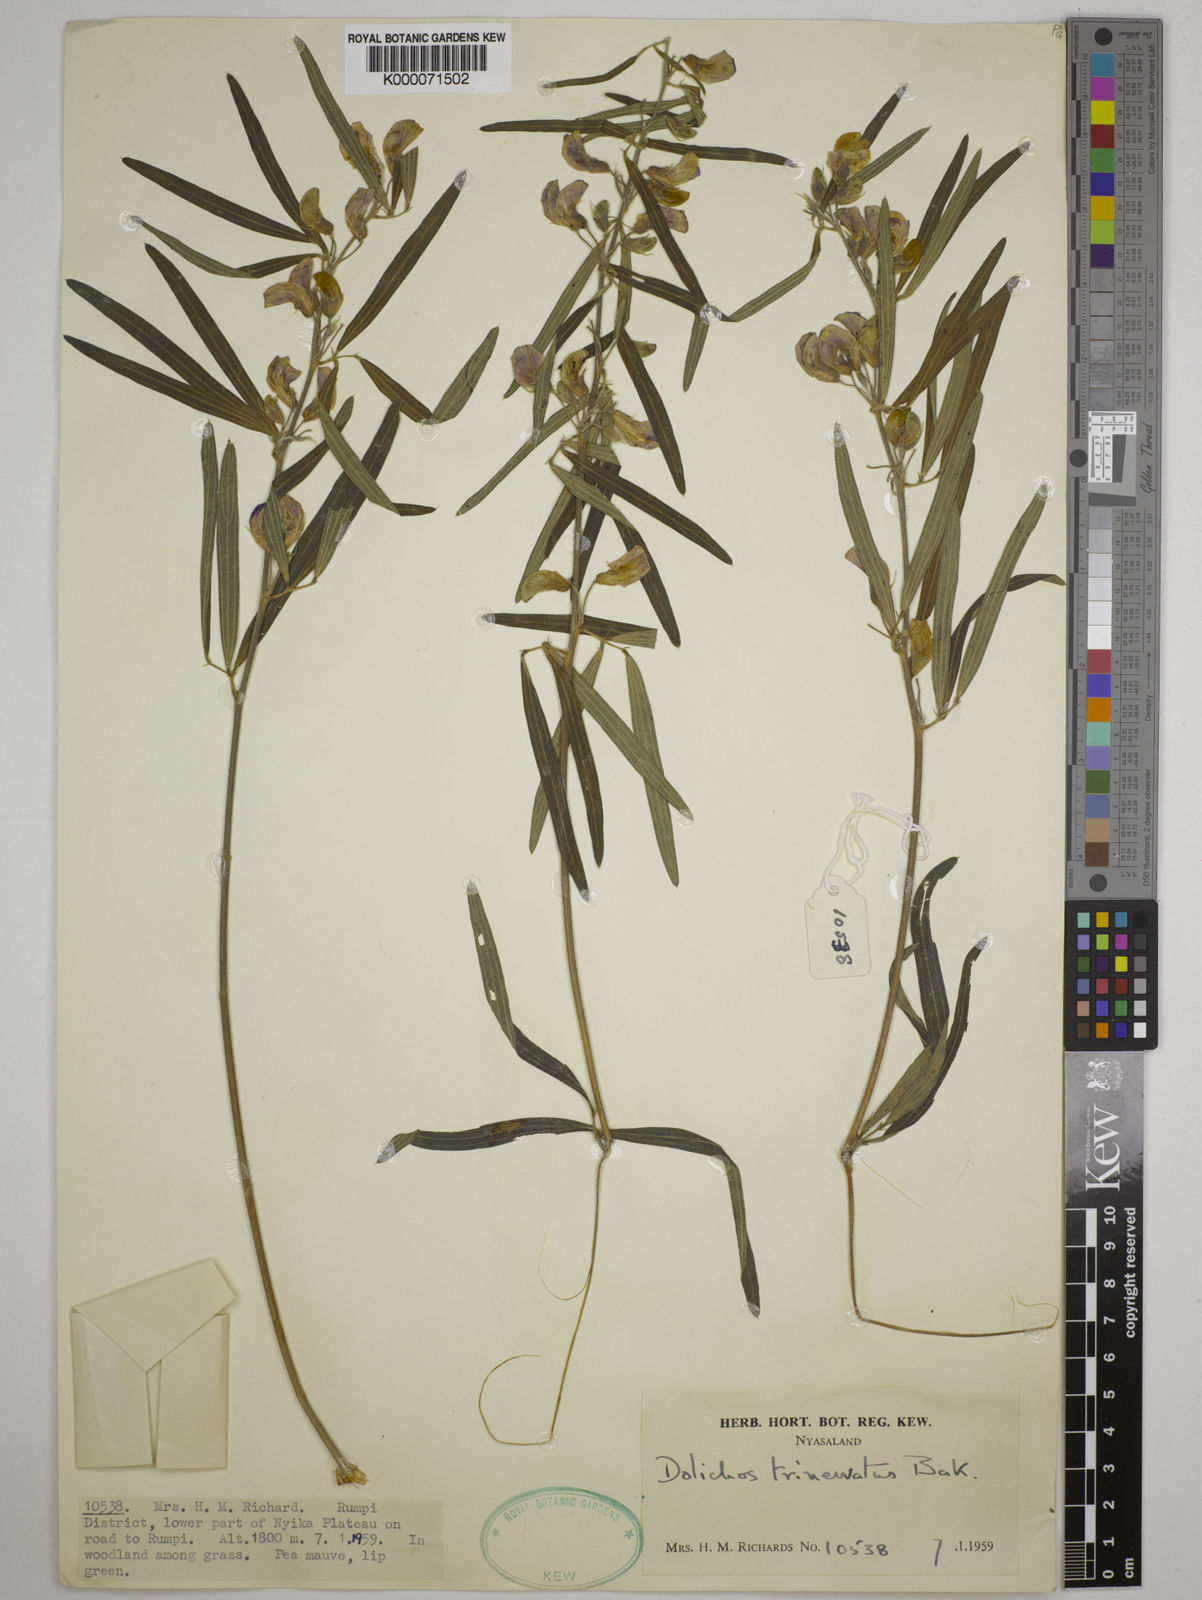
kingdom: Plantae
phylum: Tracheophyta
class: Magnoliopsida
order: Fabales
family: Fabaceae
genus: Dolichos
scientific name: Dolichos trinervatus
